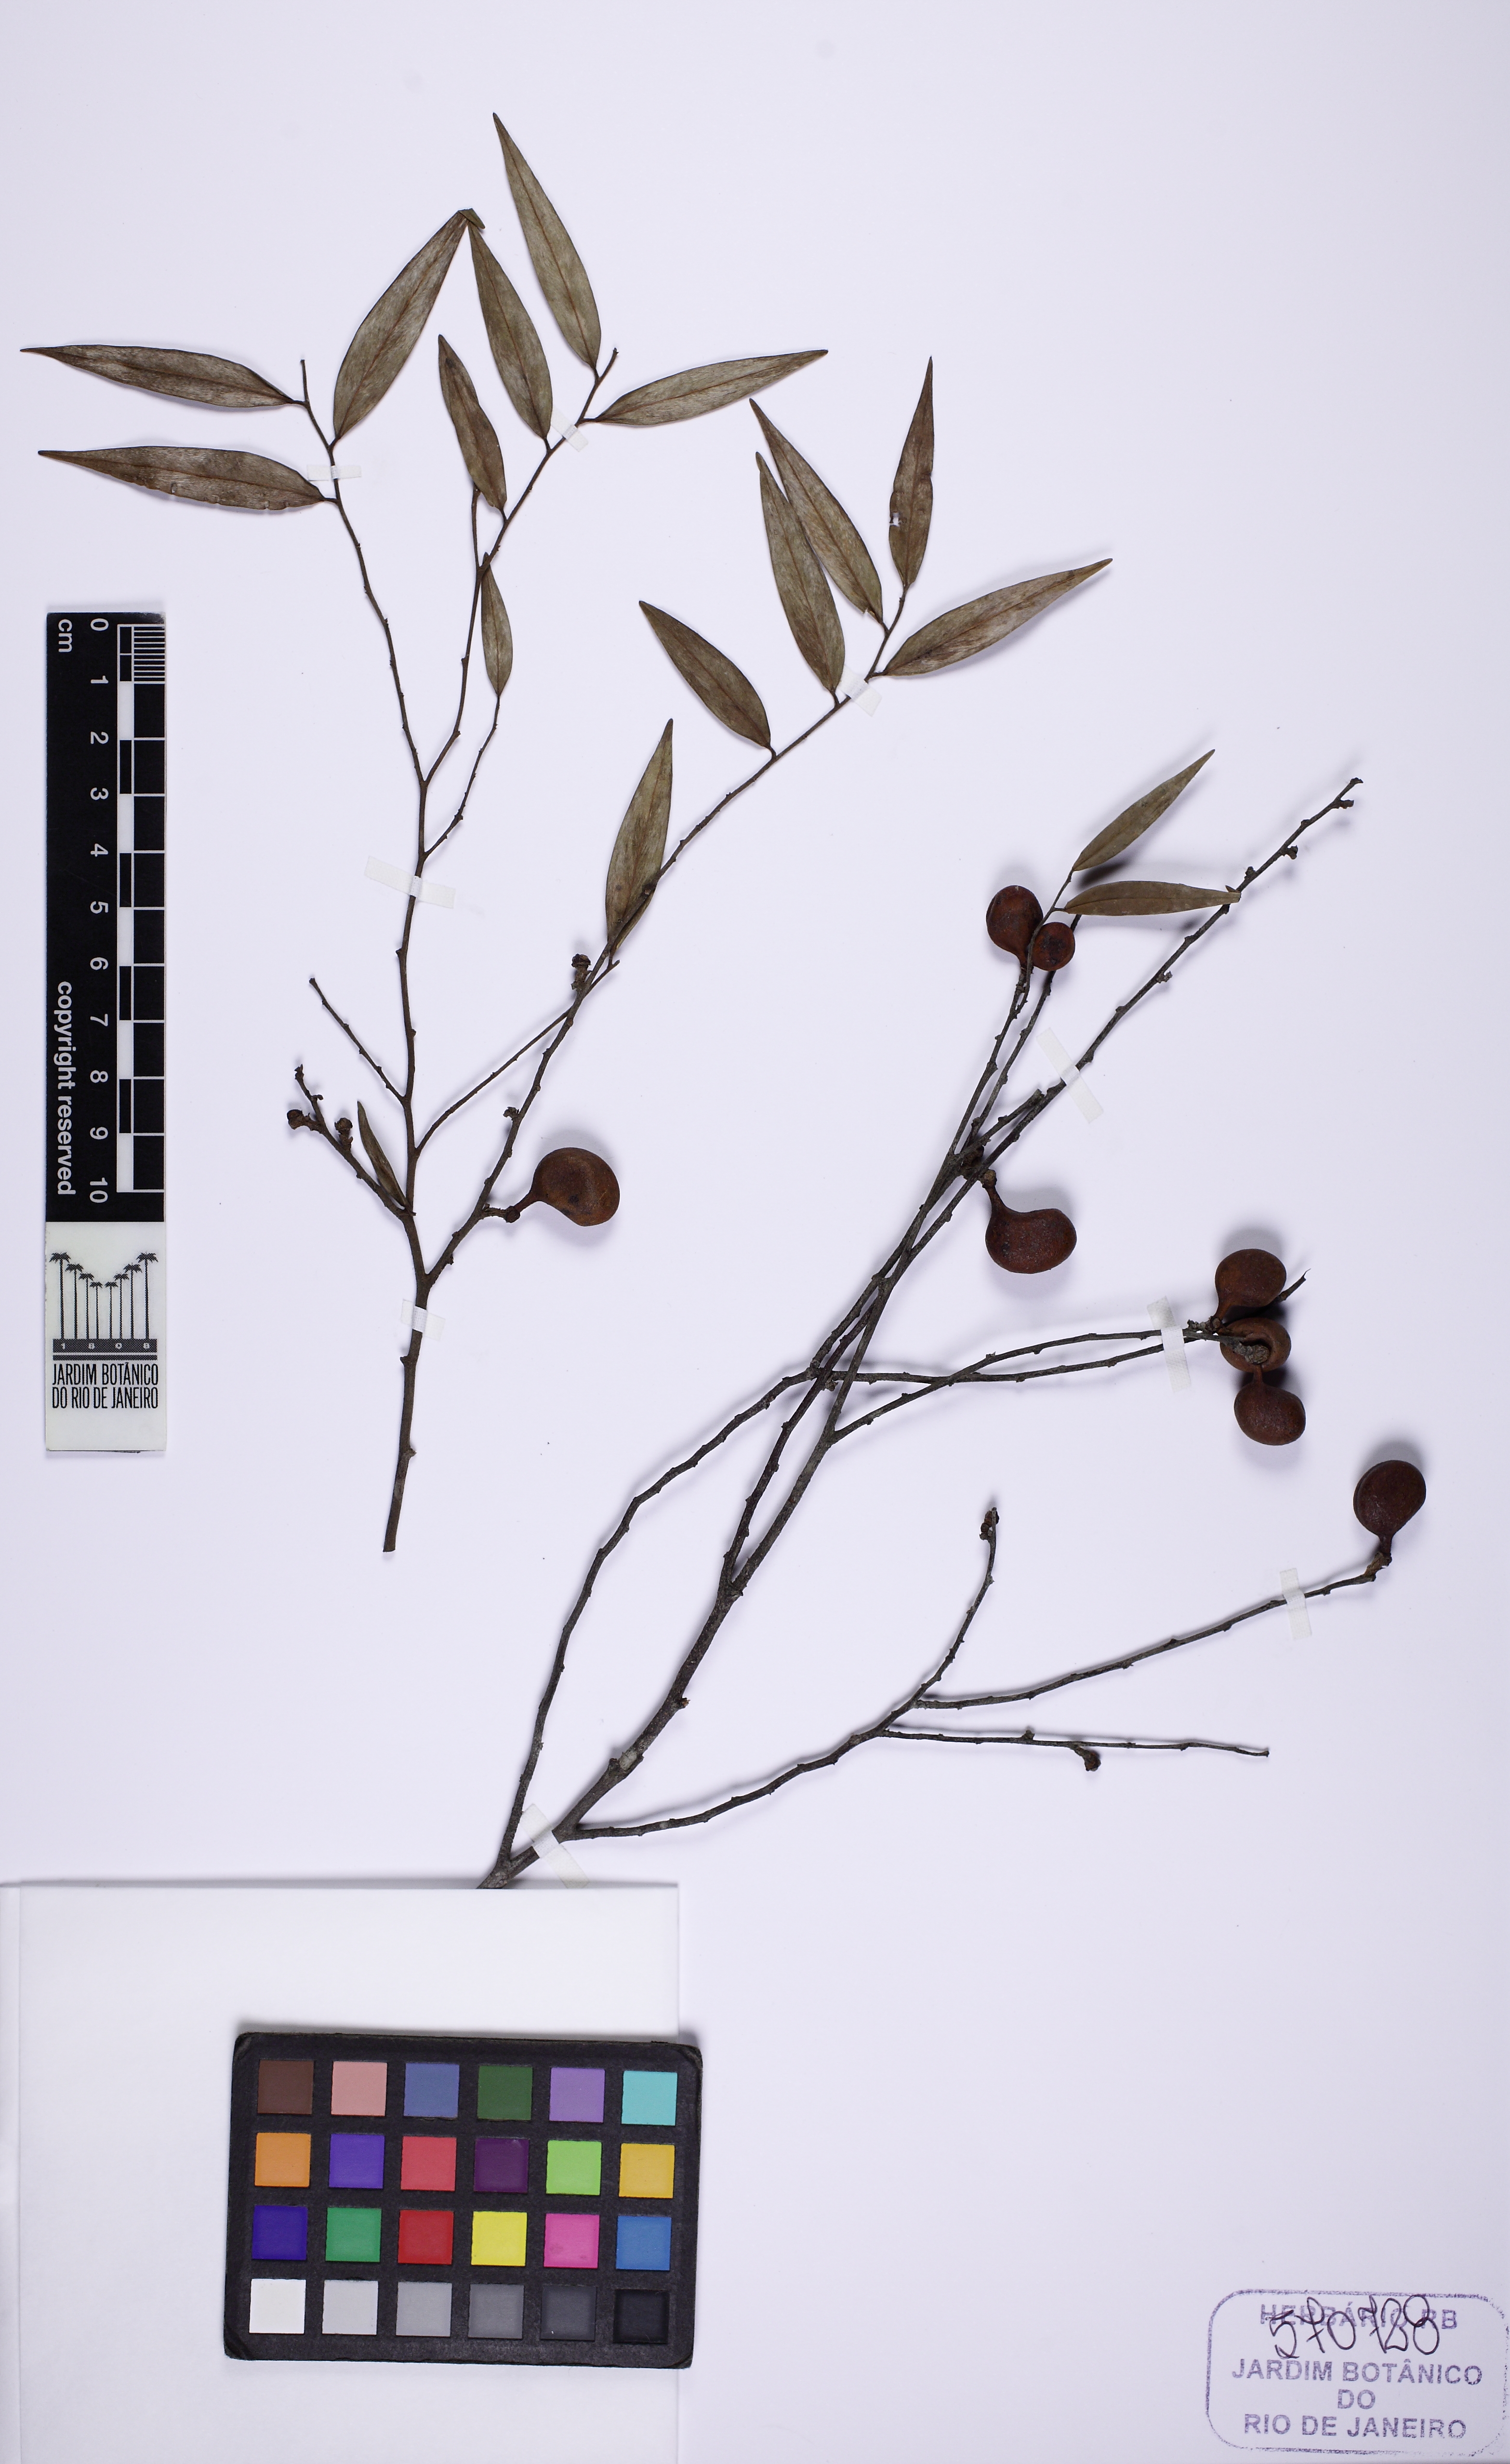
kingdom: Plantae
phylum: Tracheophyta
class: Magnoliopsida
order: Magnoliales
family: Annonaceae
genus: Xylopia
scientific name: Xylopia sericea
